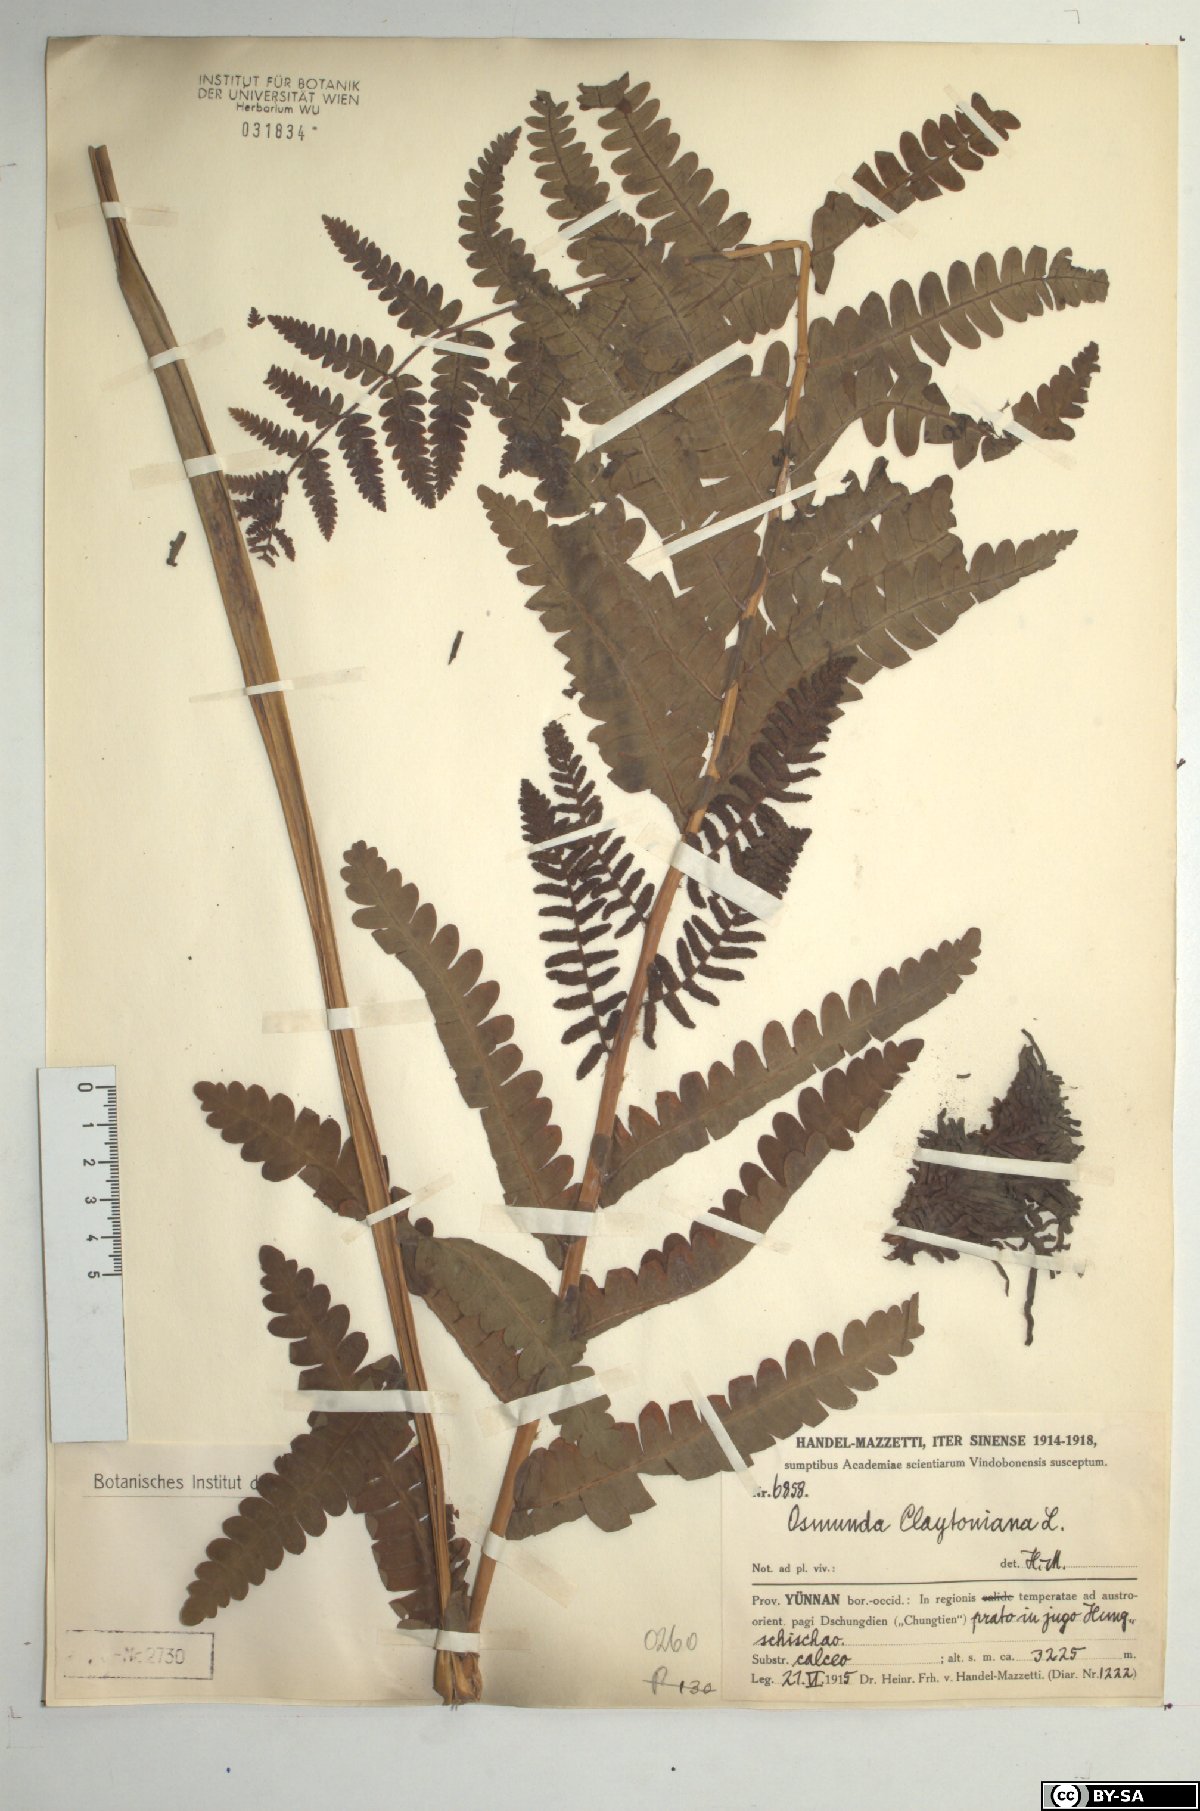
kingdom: Plantae
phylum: Tracheophyta
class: Polypodiopsida
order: Osmundales
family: Osmundaceae
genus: Claytosmunda
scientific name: Claytosmunda claytoniana
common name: Clayton's fern
